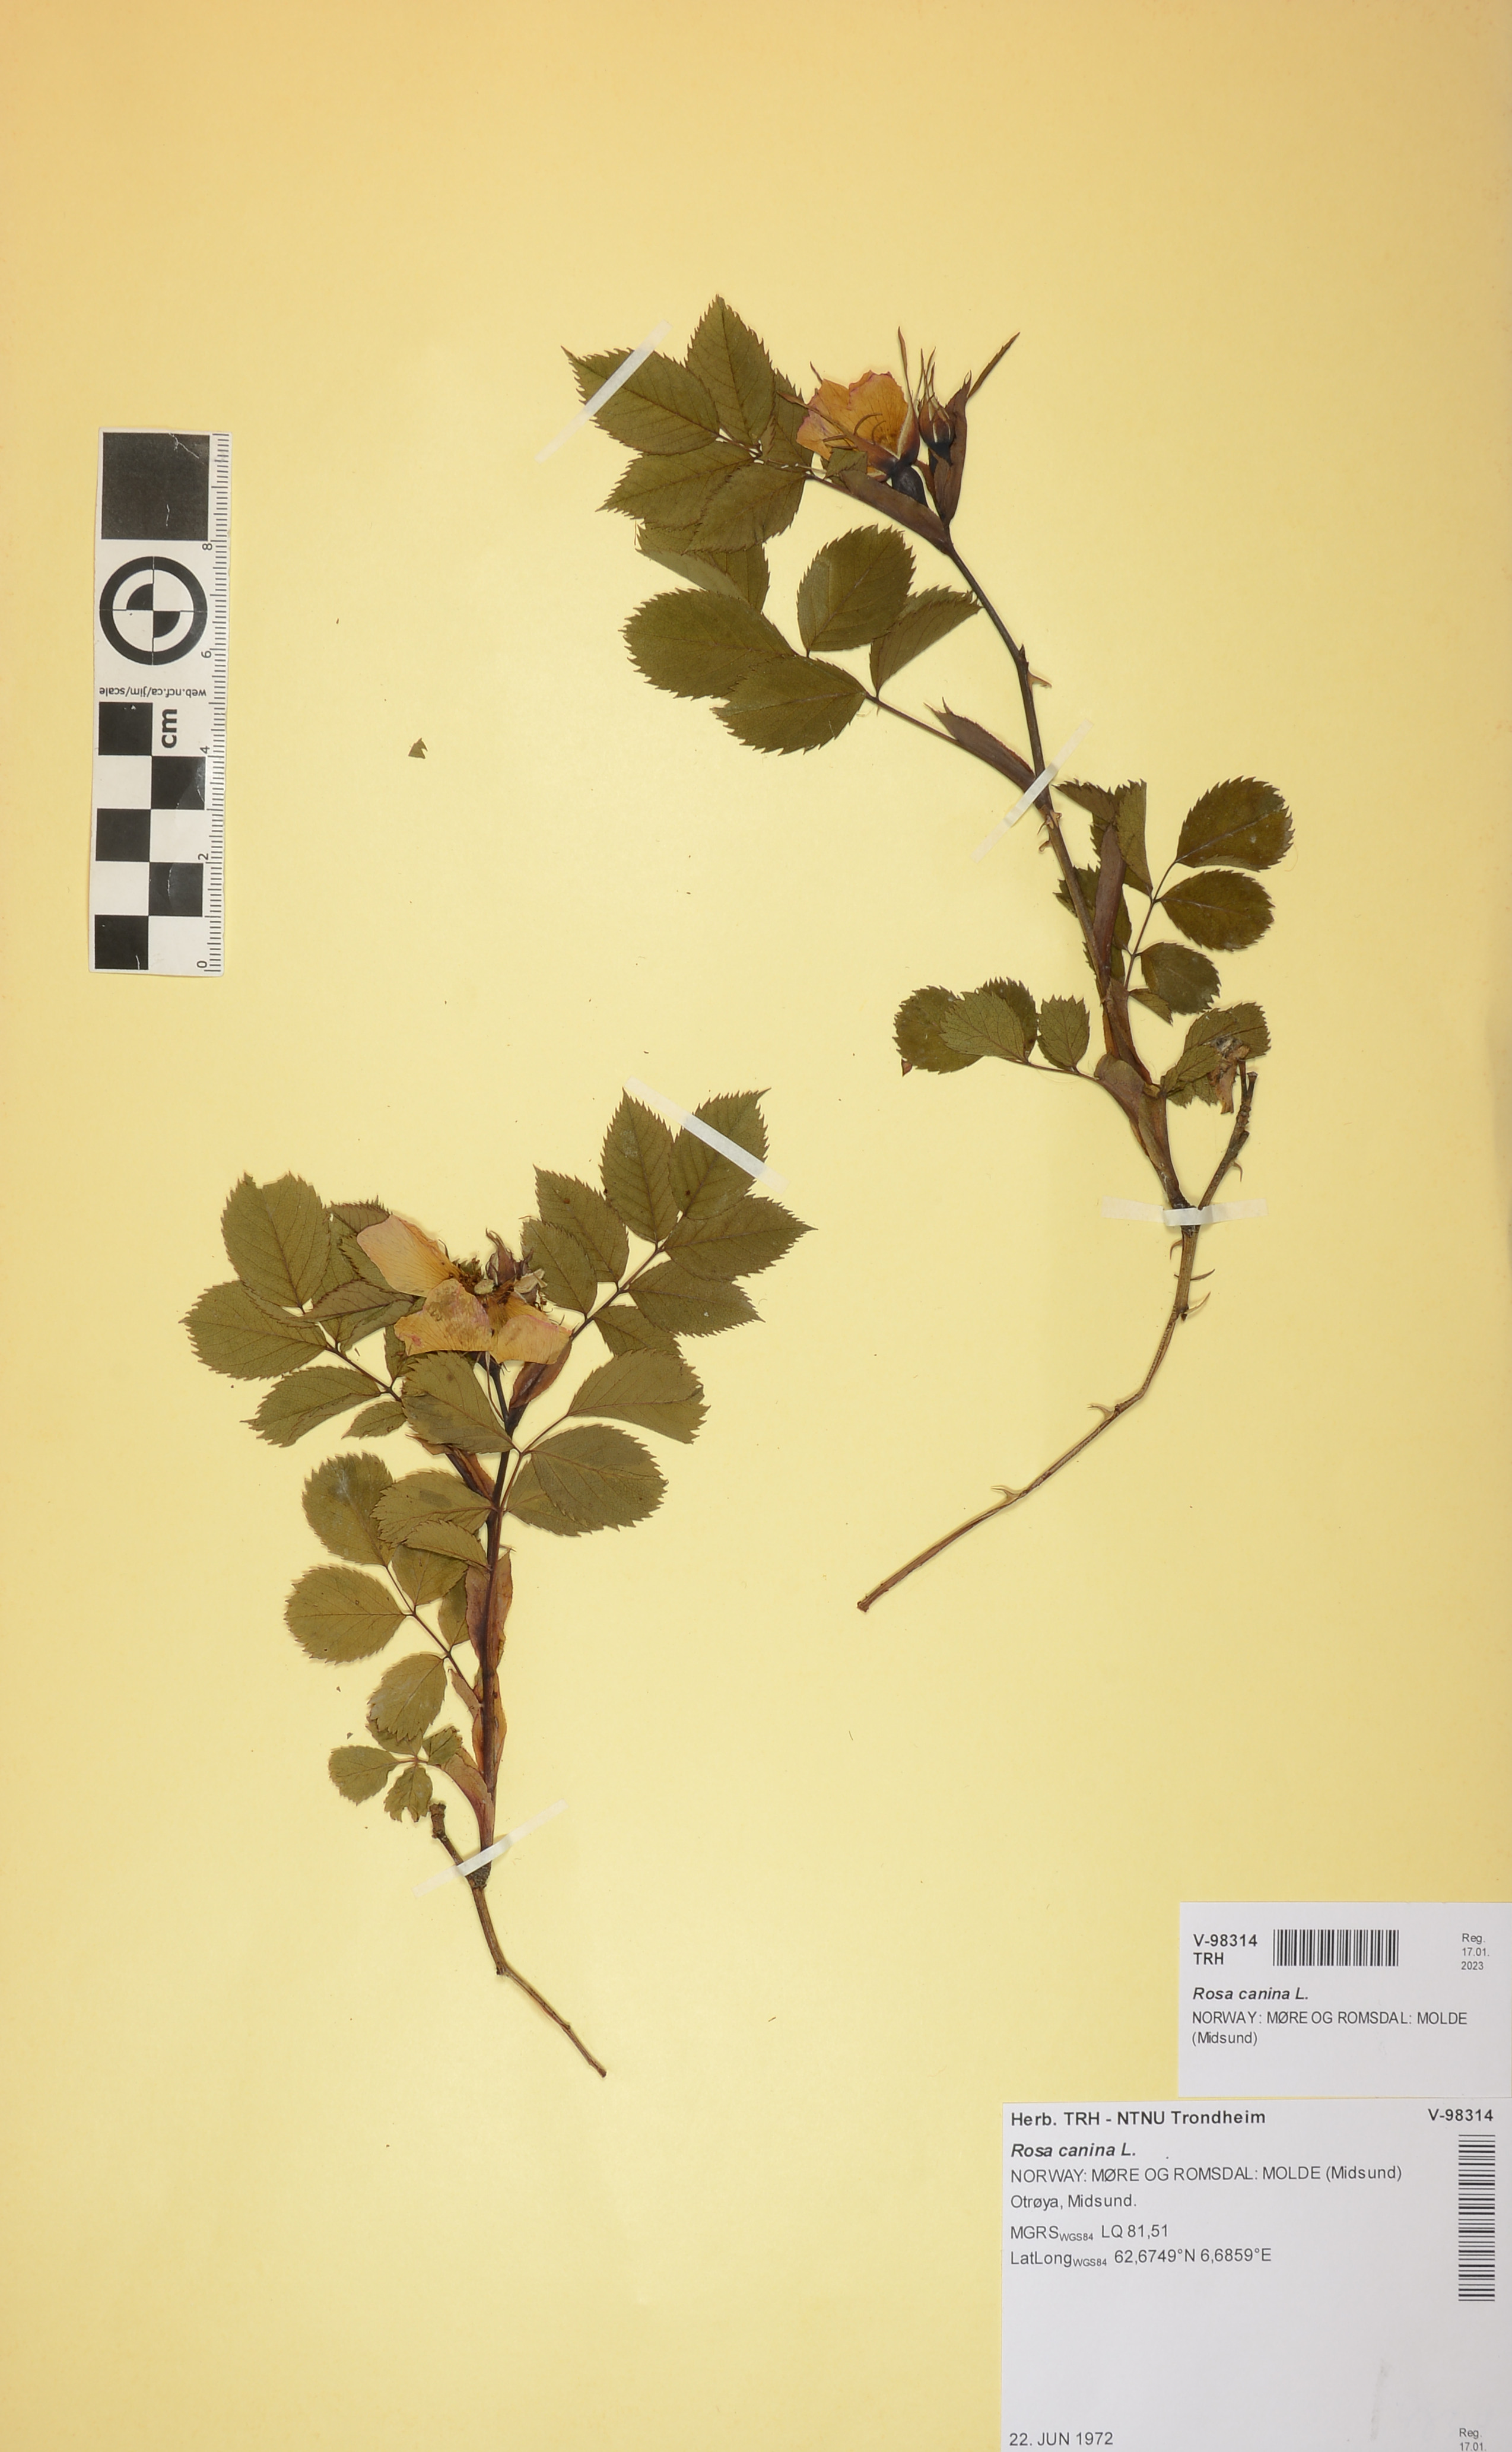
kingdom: Plantae
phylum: Tracheophyta
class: Magnoliopsida
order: Rosales
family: Rosaceae
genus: Rosa
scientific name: Rosa canina
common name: Dog rose
